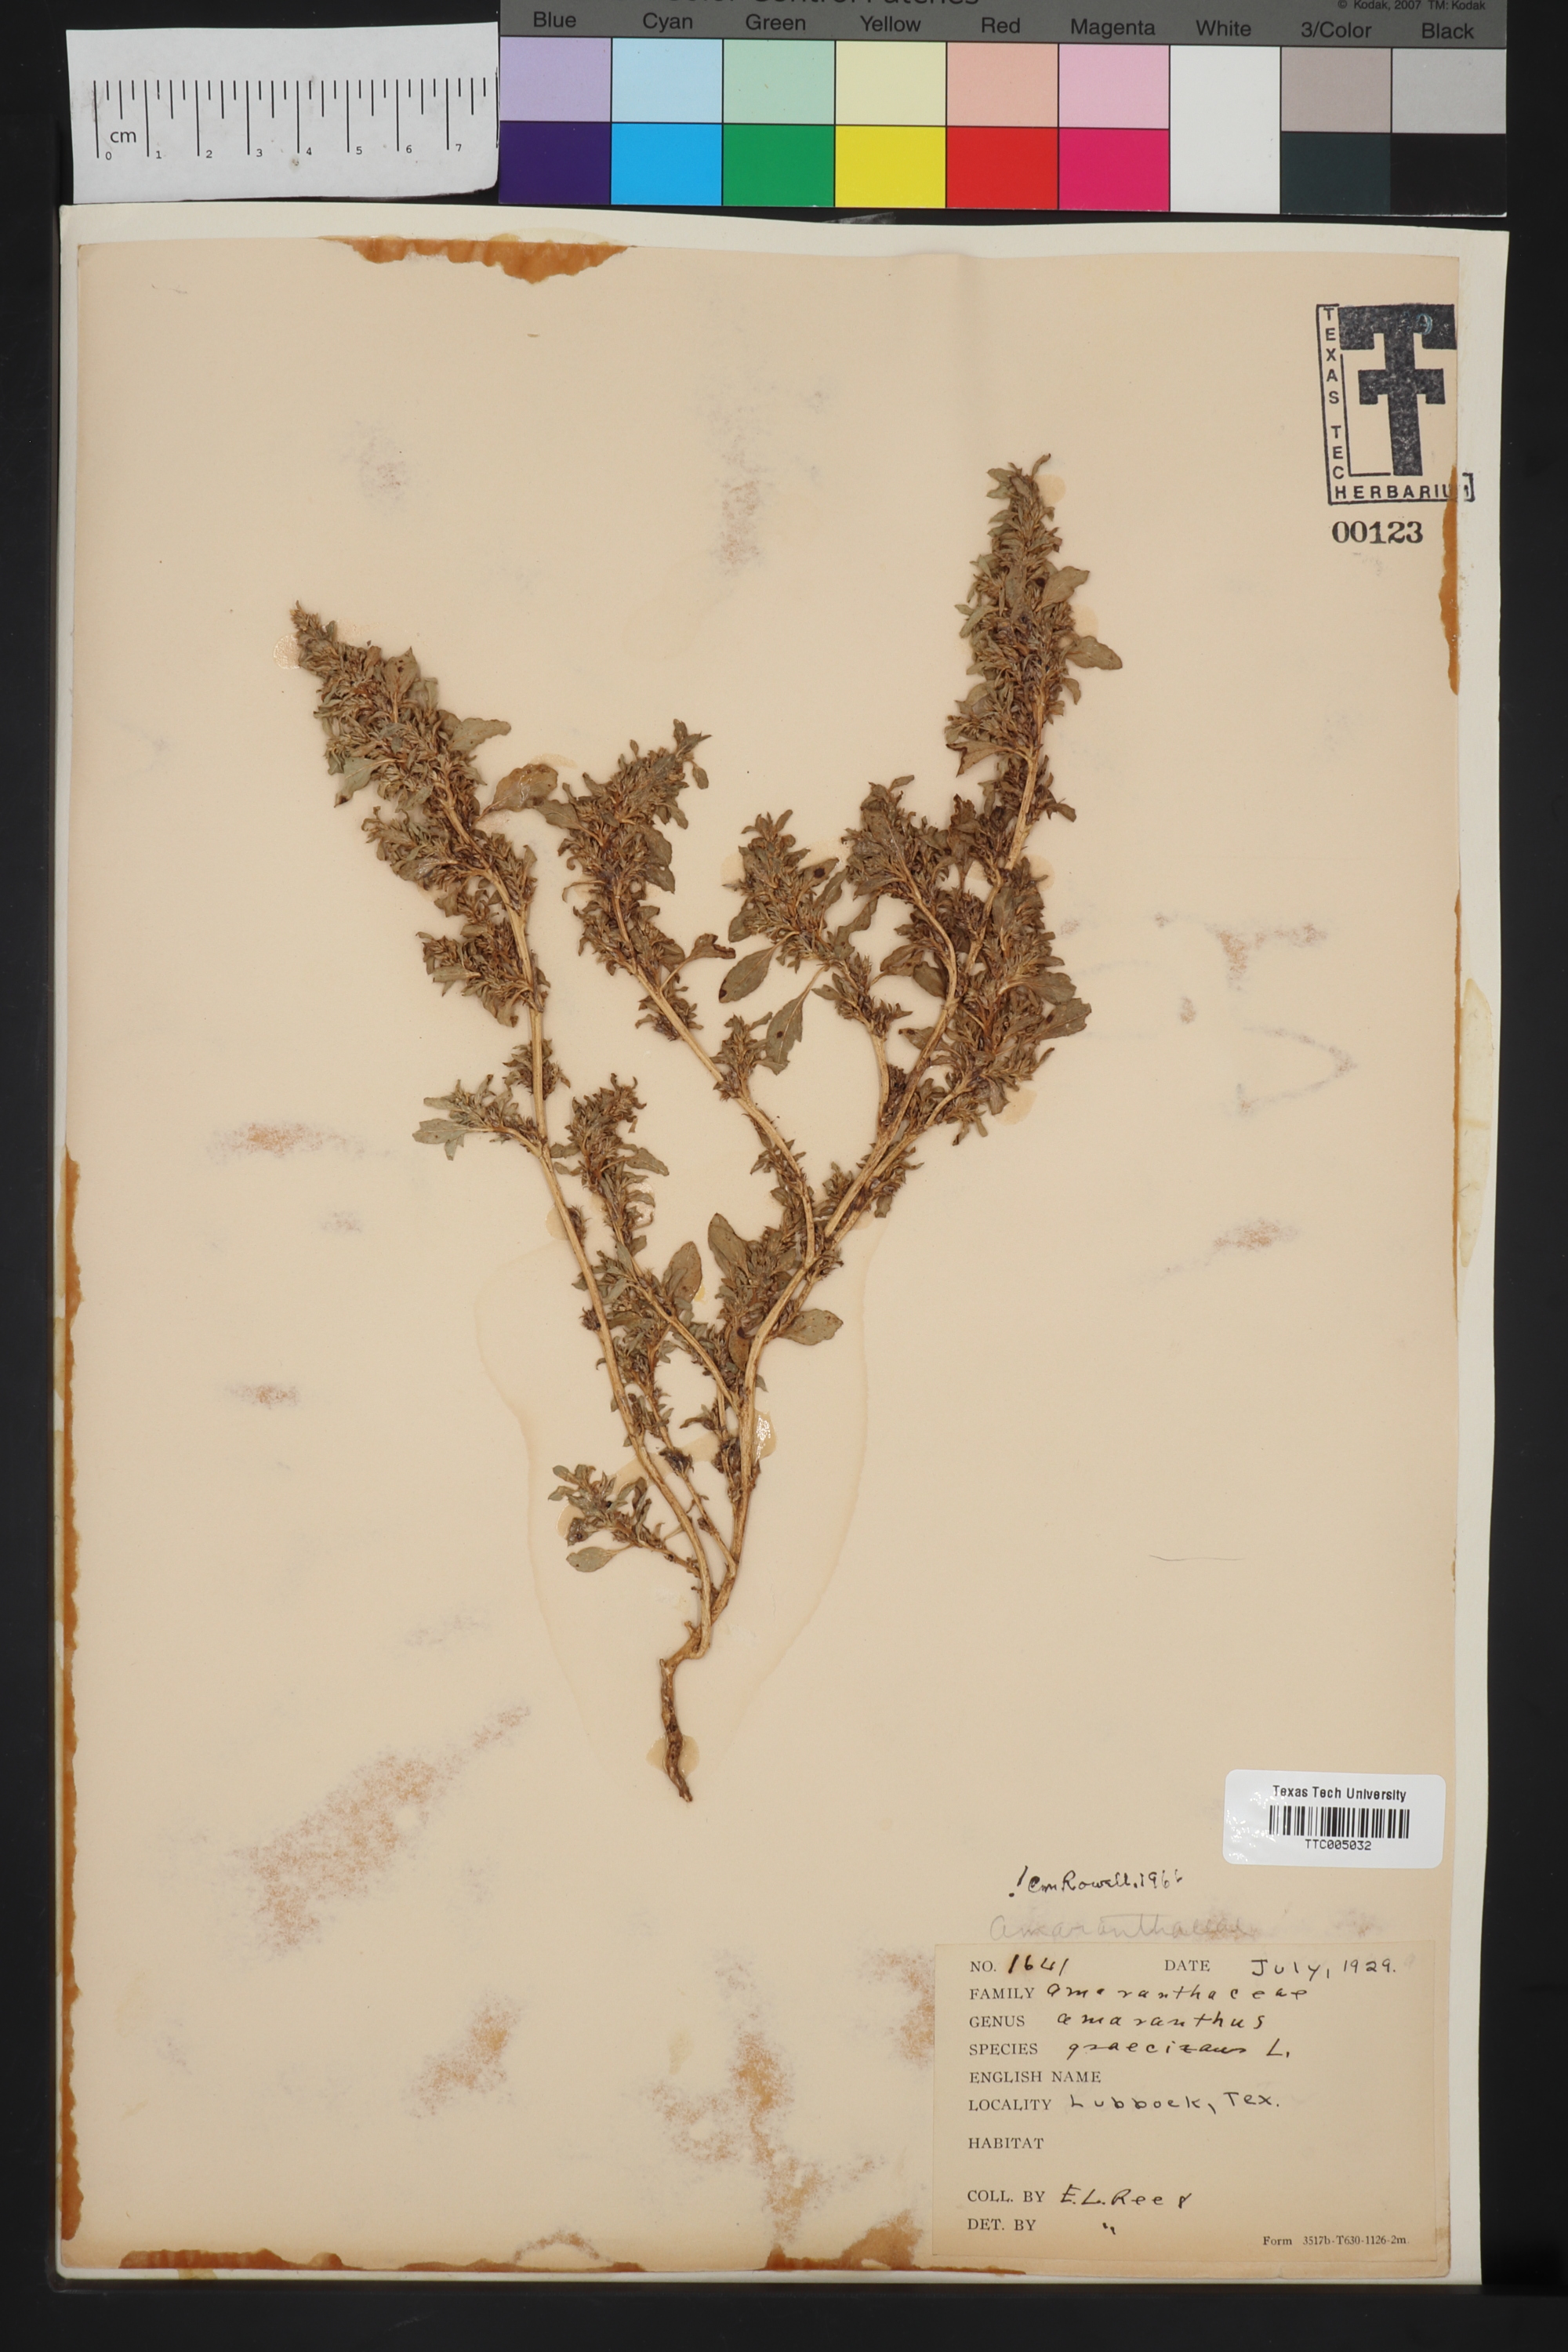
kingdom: Plantae
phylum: Tracheophyta
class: Magnoliopsida
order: Caryophyllales
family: Amaranthaceae
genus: Amaranthus
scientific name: Amaranthus graecizans
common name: Mediterranean amaranth
